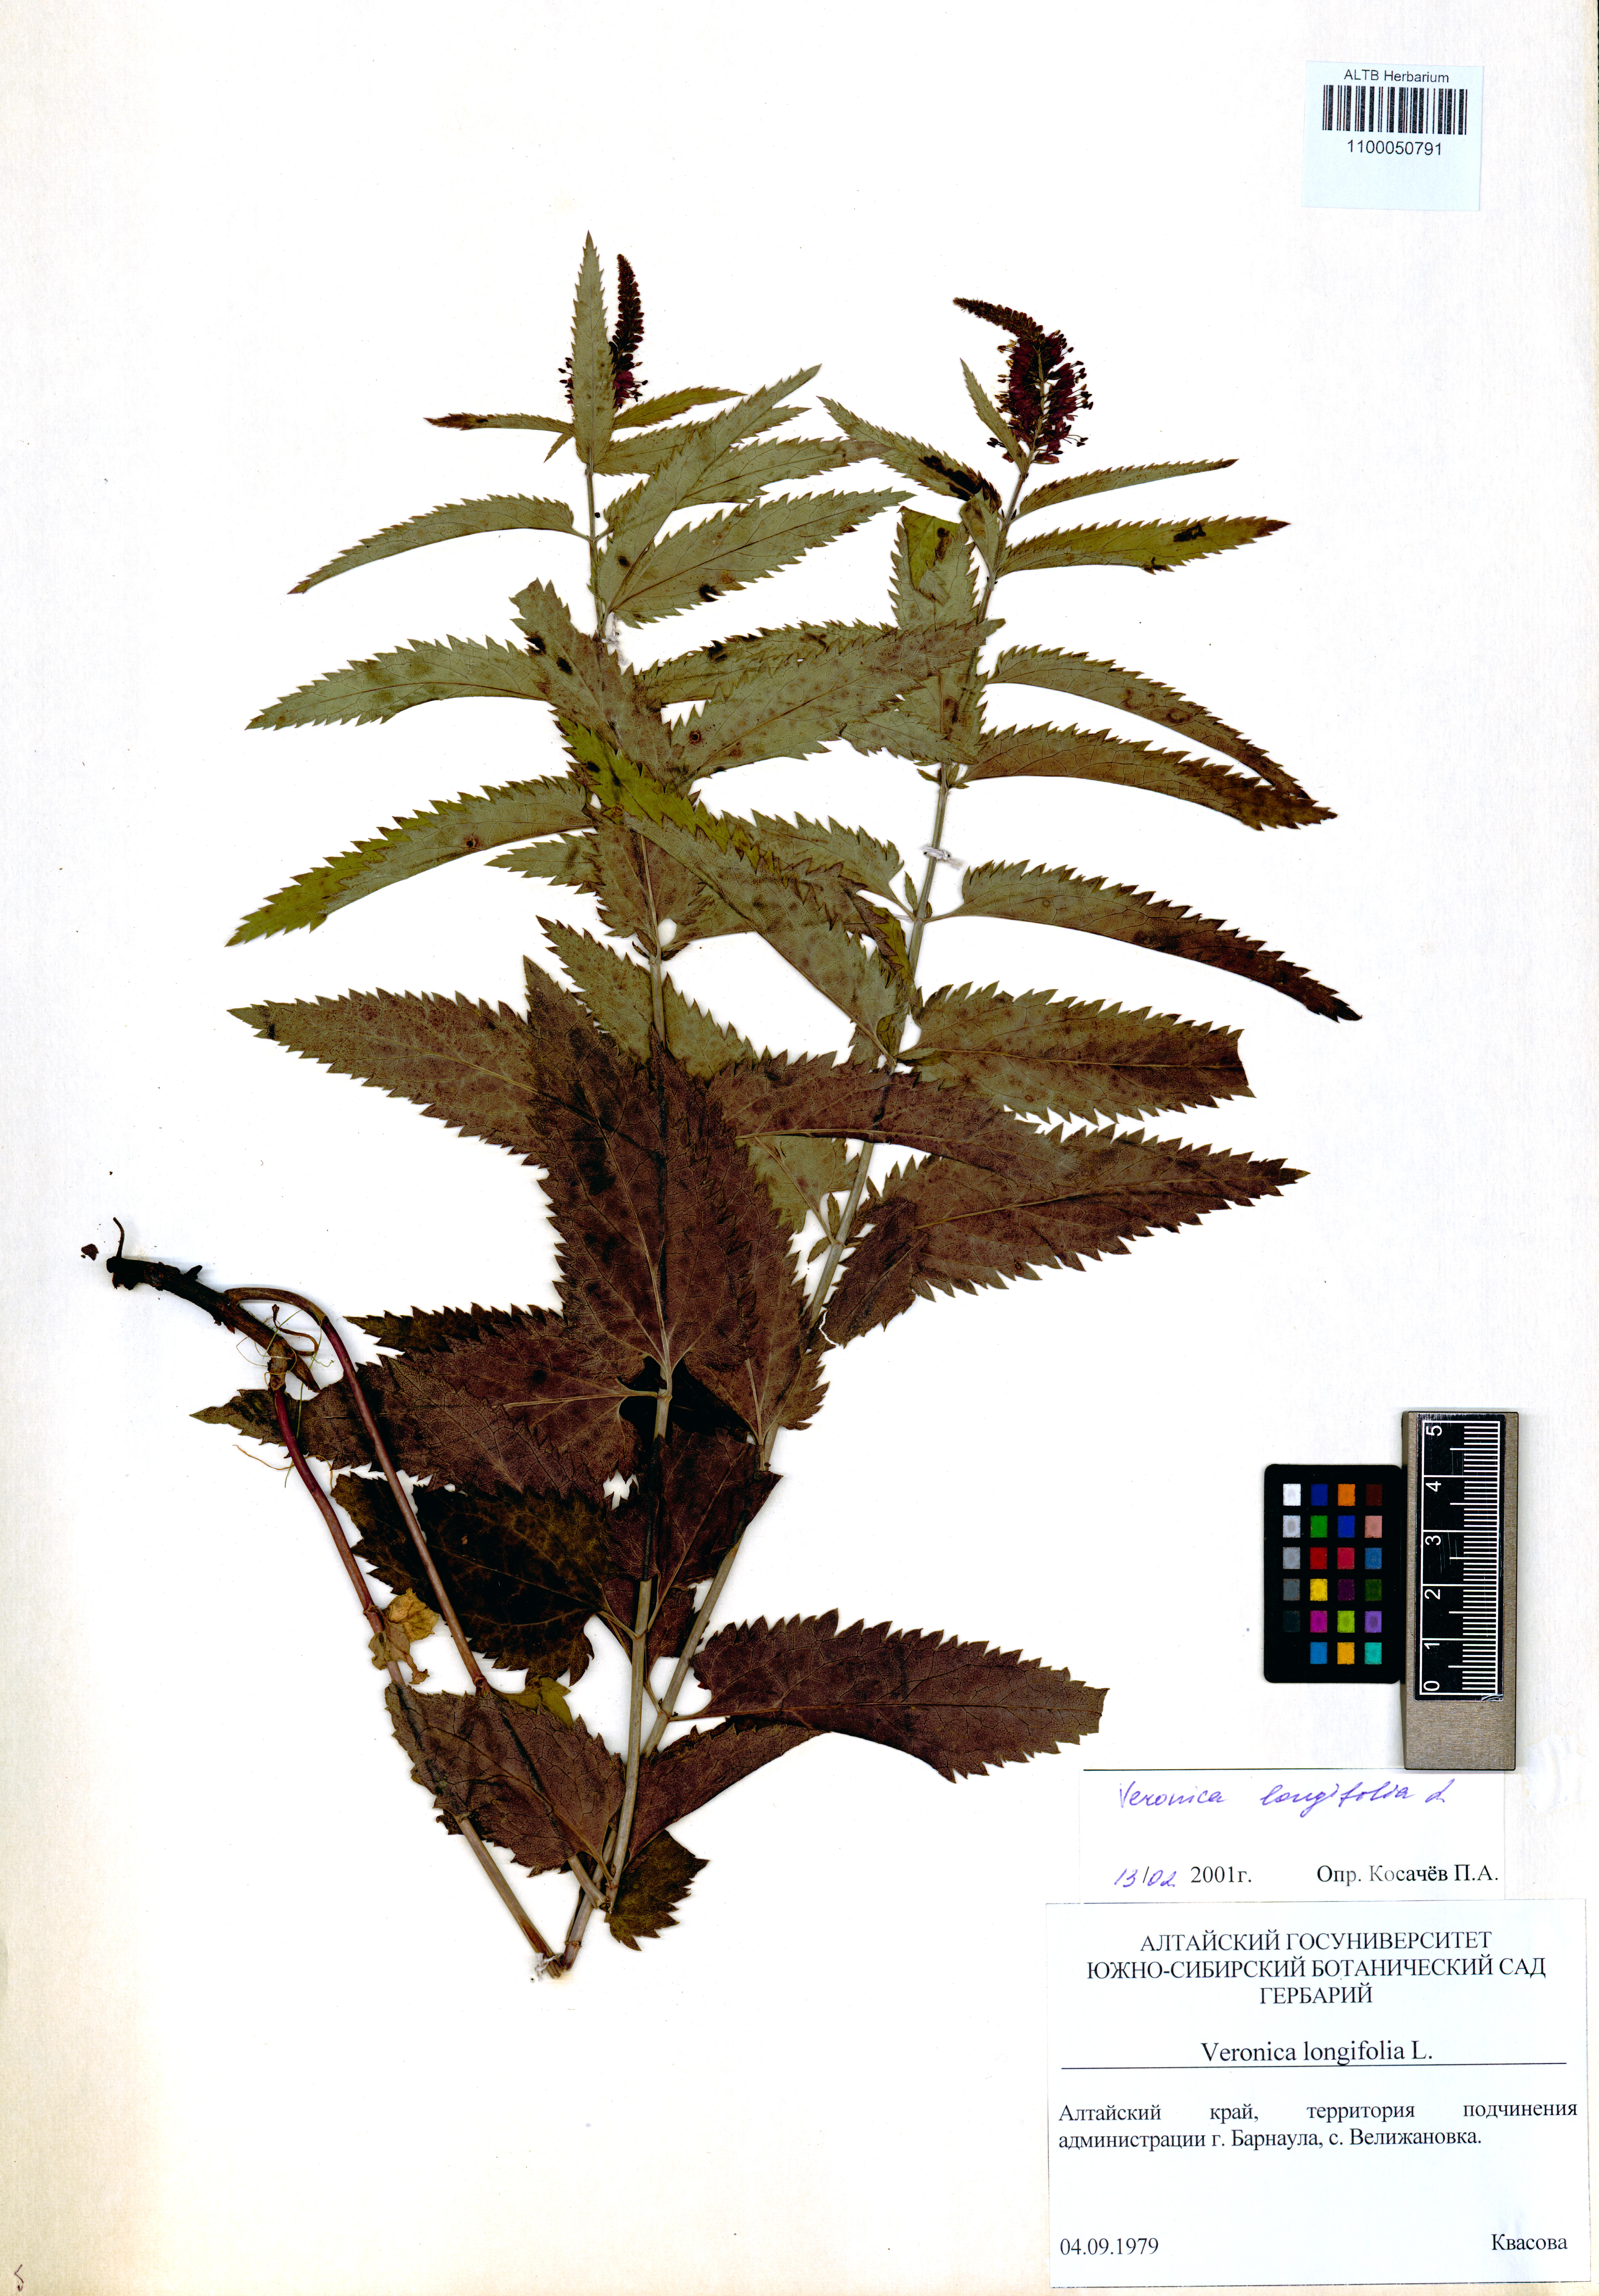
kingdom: Plantae
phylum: Tracheophyta
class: Magnoliopsida
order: Lamiales
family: Plantaginaceae
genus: Veronica
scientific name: Veronica longifolia
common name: Garden speedwell
